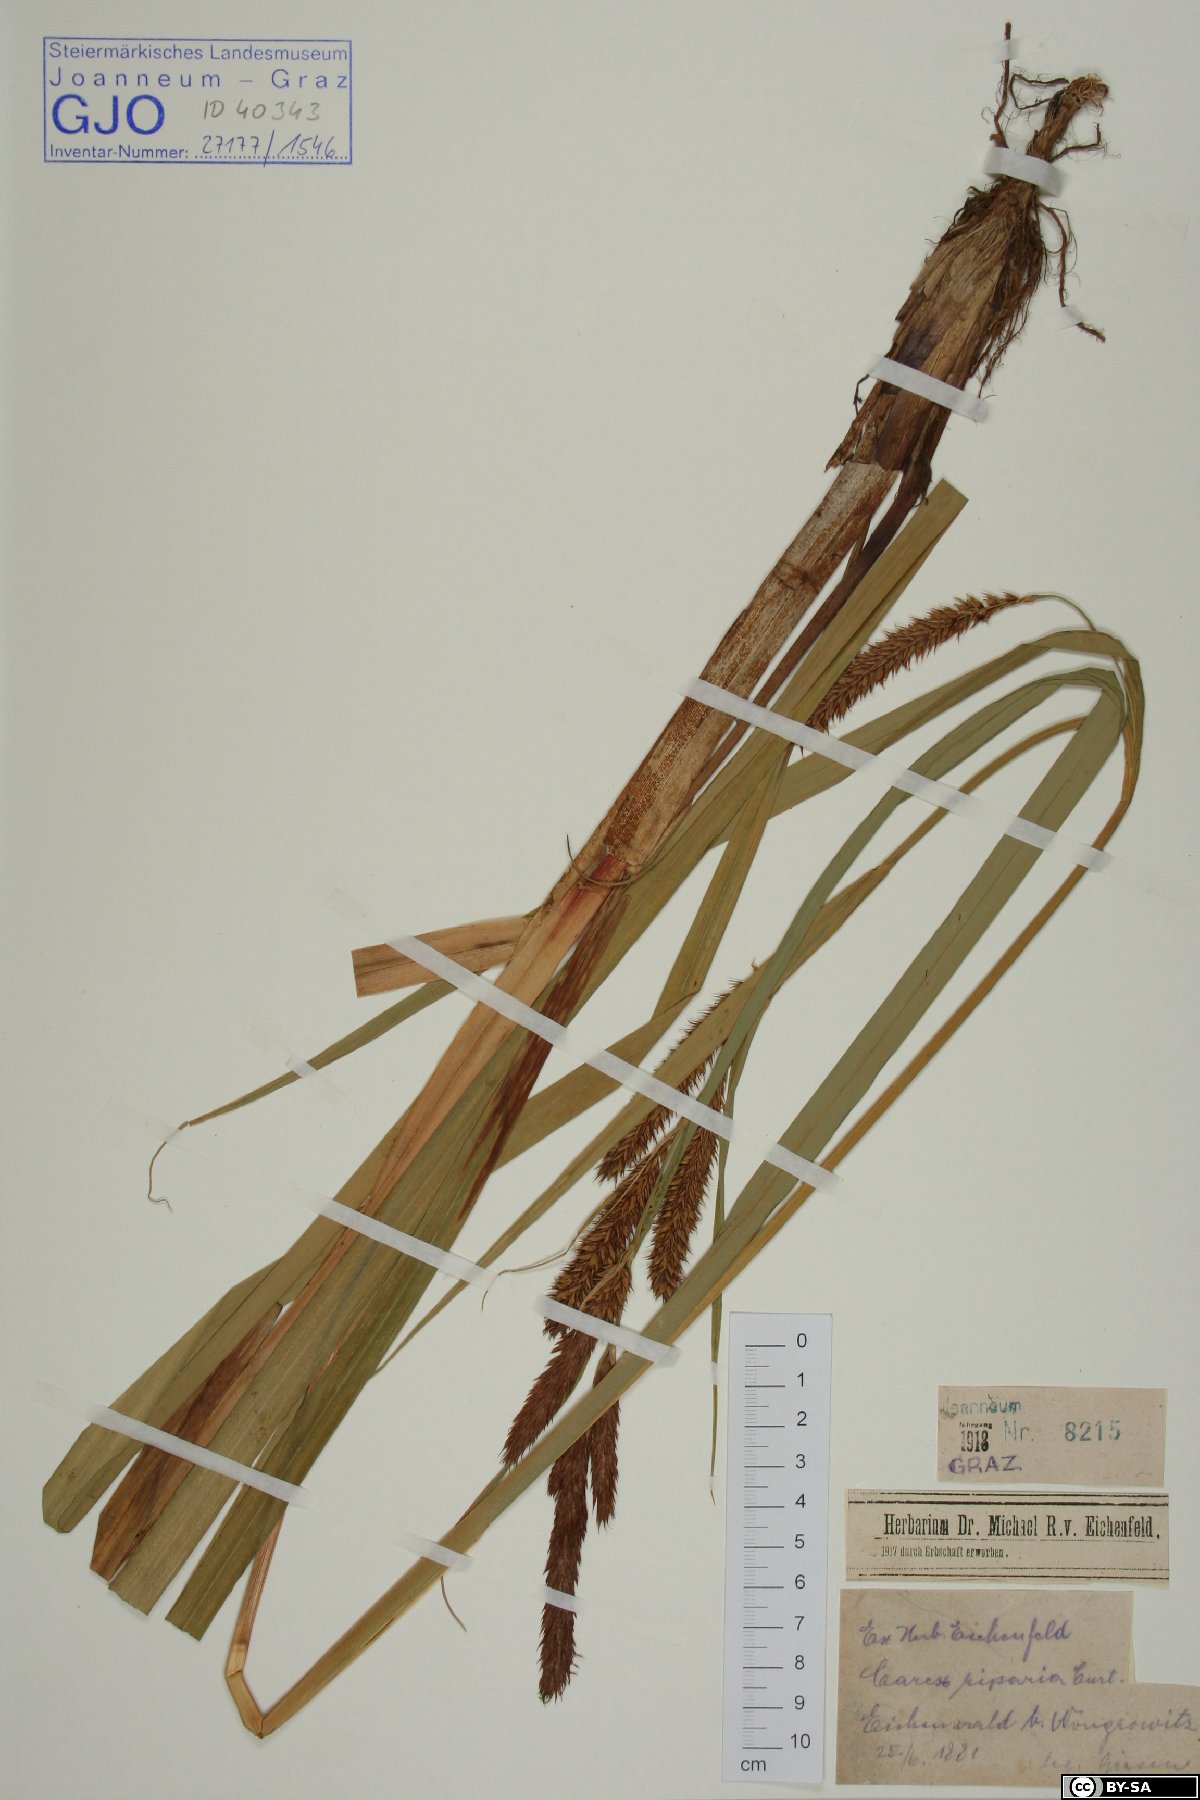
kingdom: Plantae
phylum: Tracheophyta
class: Liliopsida
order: Poales
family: Cyperaceae
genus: Carex
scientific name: Carex riparia
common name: Greater pond-sedge
